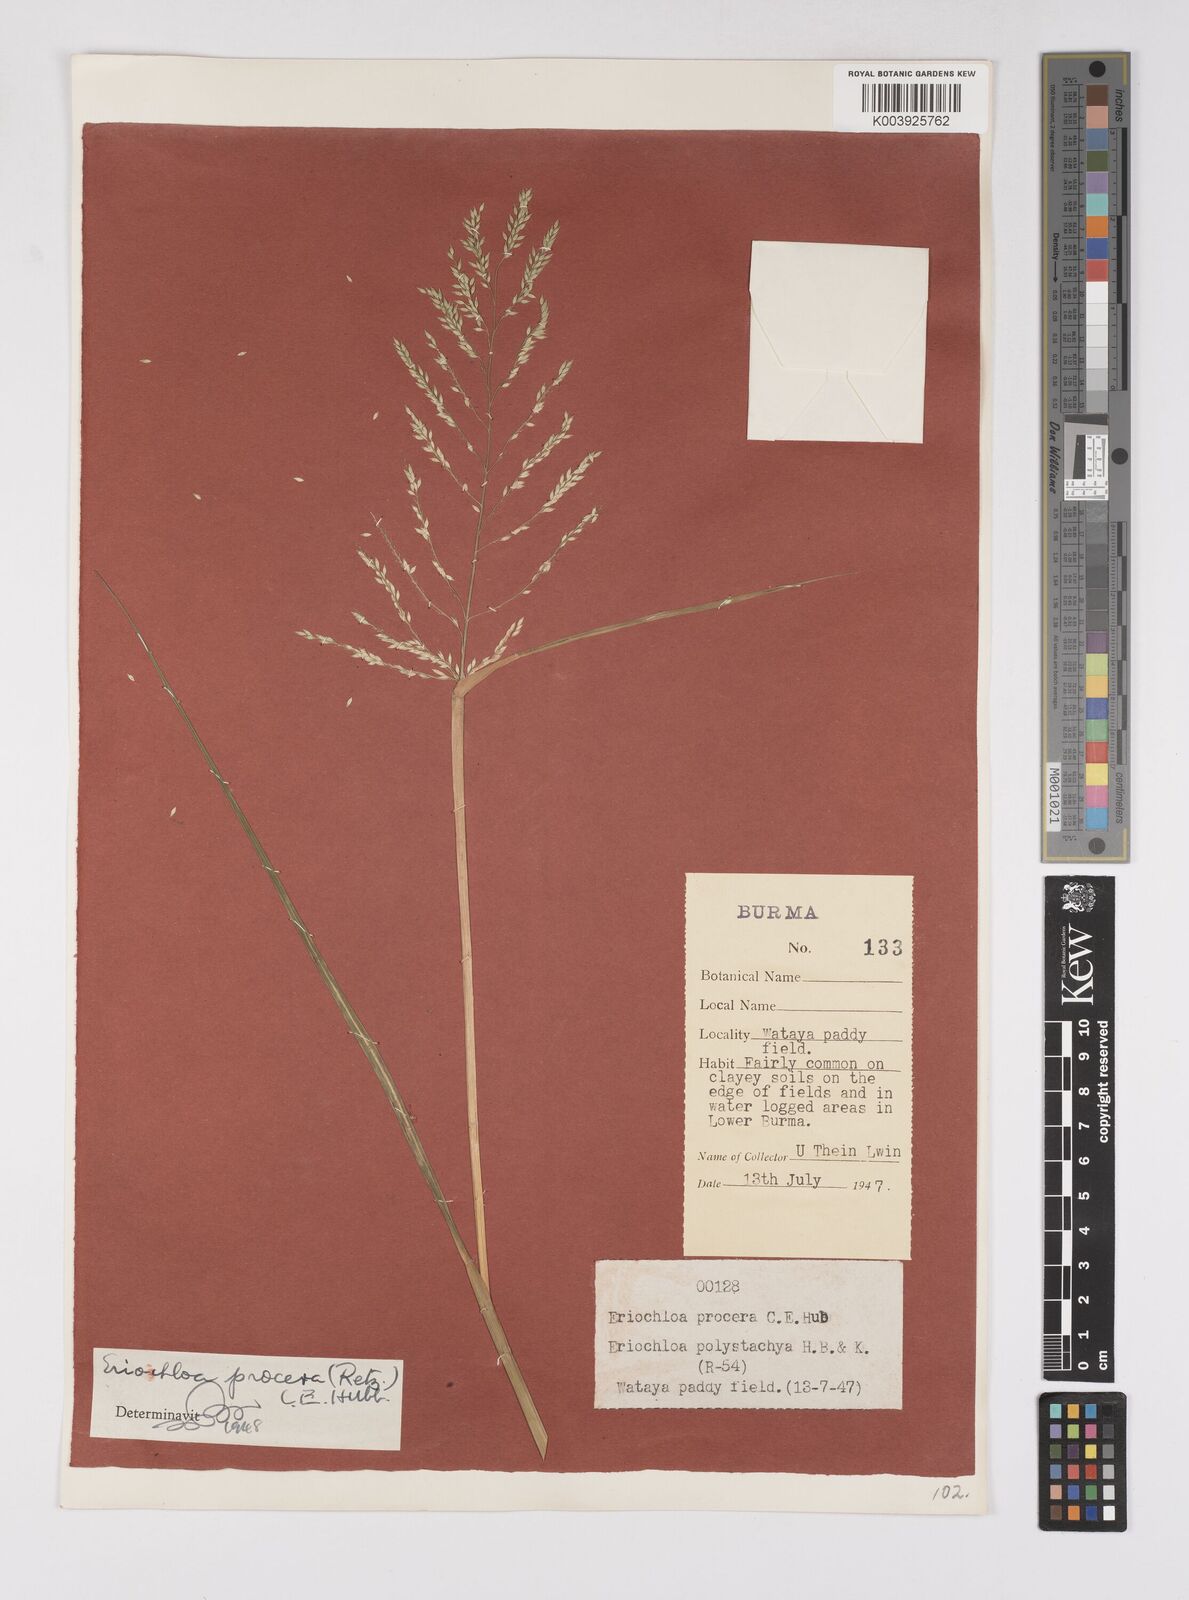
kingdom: Plantae
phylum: Tracheophyta
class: Liliopsida
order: Poales
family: Poaceae
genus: Eriochloa
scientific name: Eriochloa procera
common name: Spring grass
